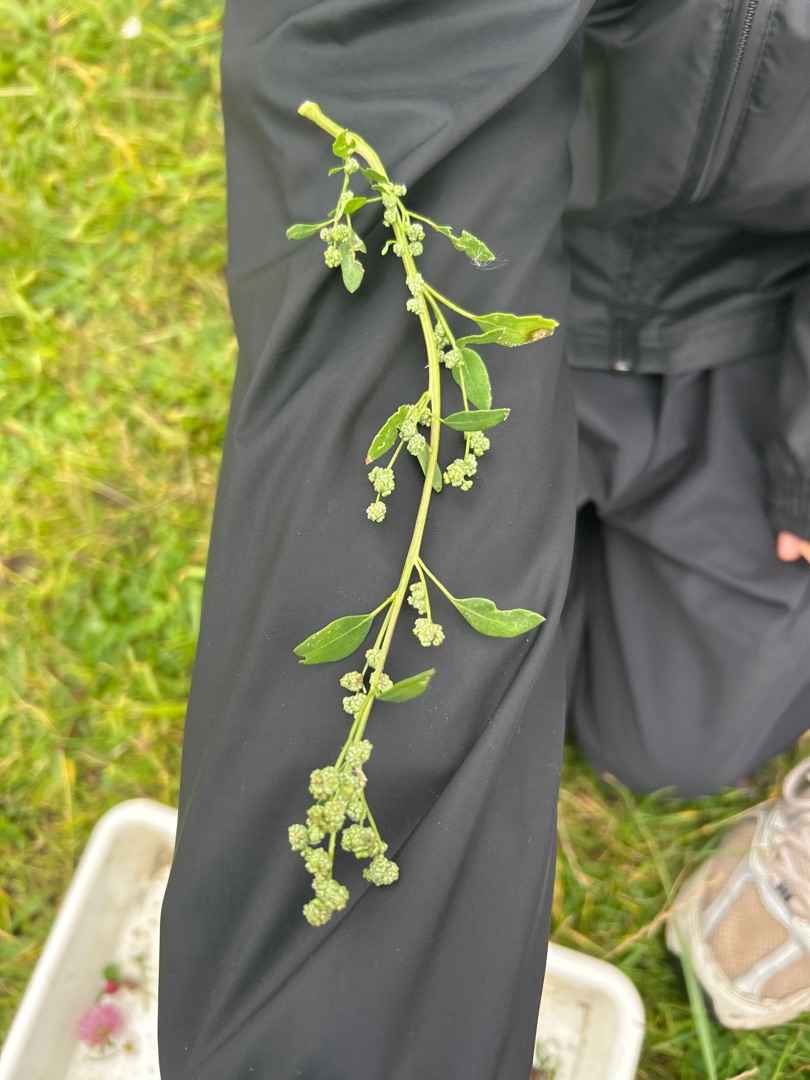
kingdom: Plantae
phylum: Tracheophyta
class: Magnoliopsida
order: Caryophyllales
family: Amaranthaceae
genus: Chenopodium
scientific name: Chenopodium suecicum
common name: Grøn gåsefod
